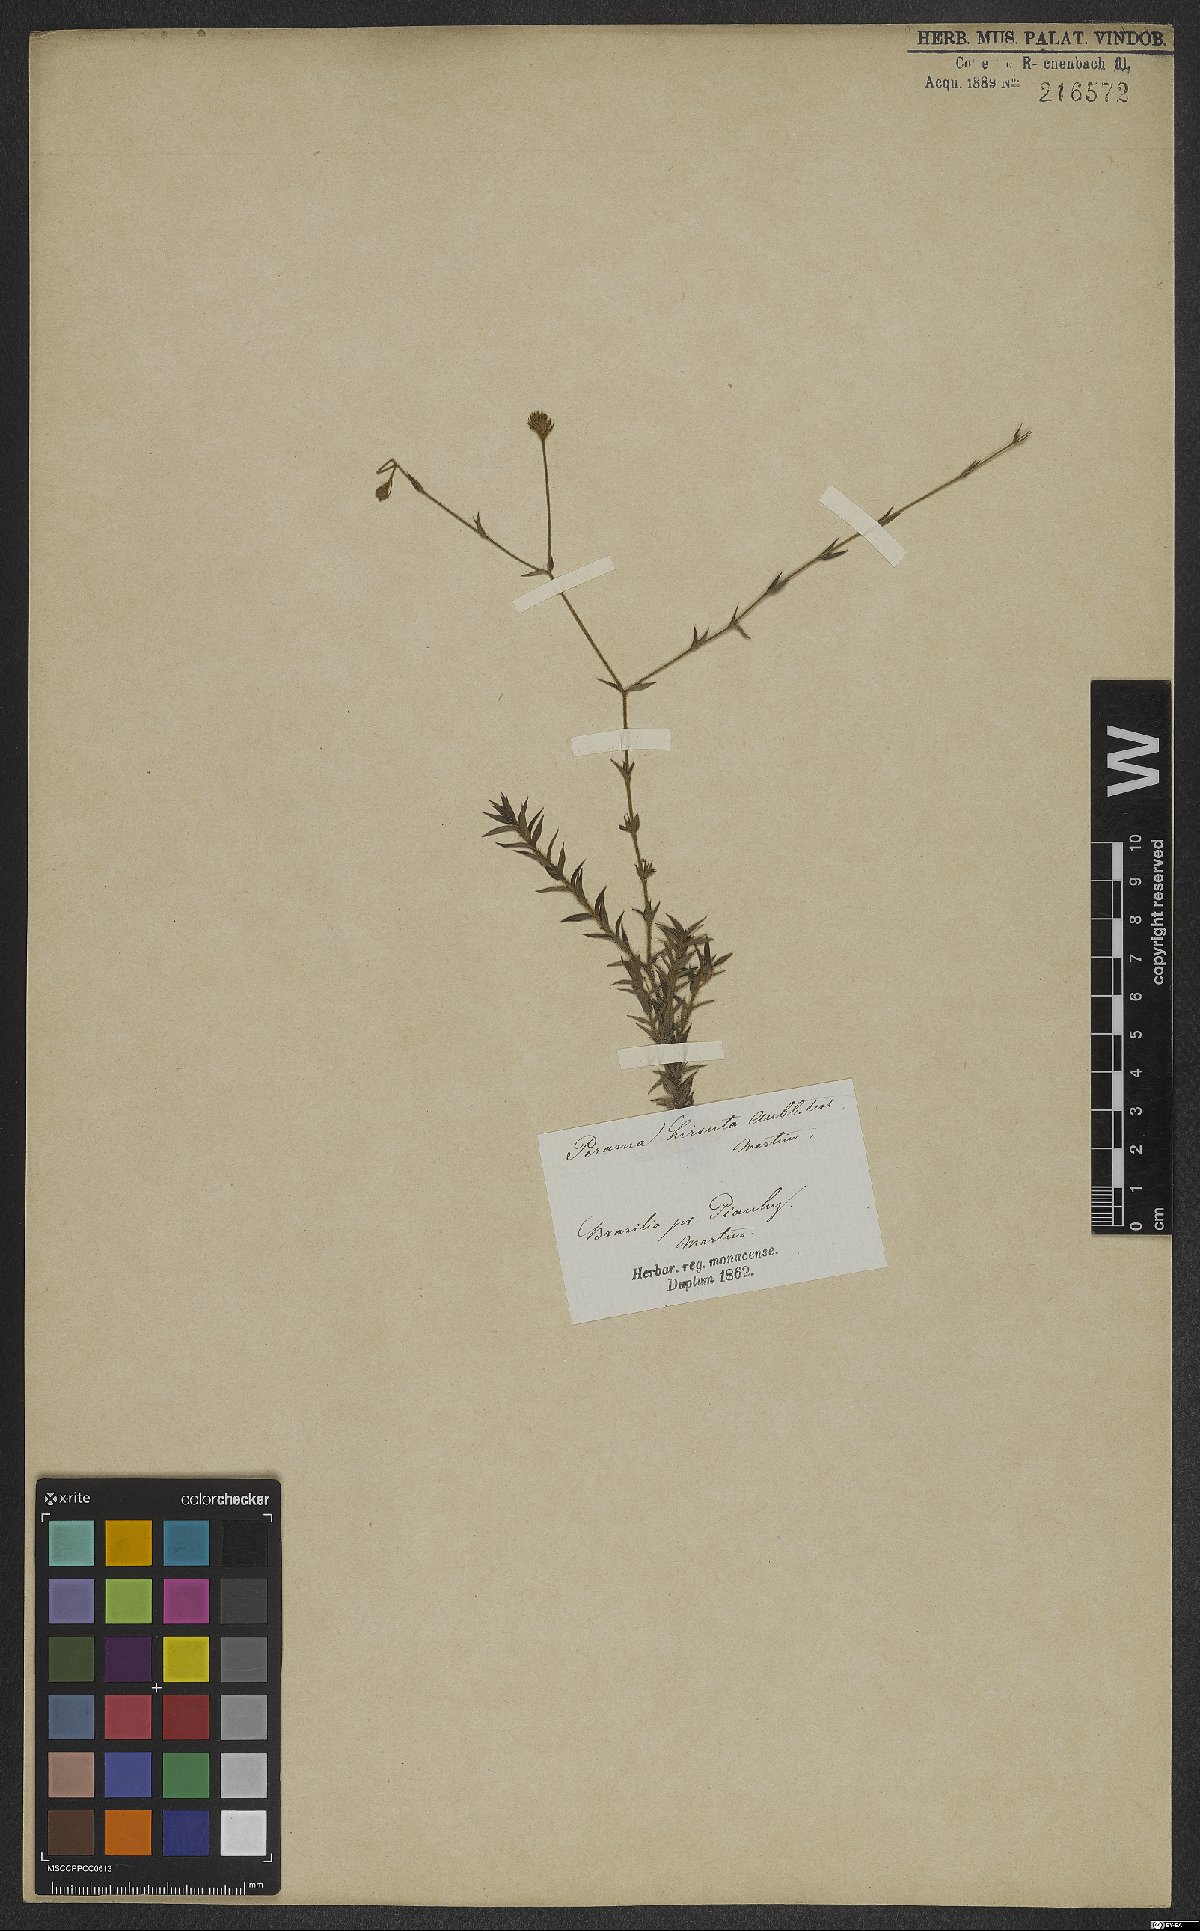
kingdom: Plantae
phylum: Tracheophyta
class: Magnoliopsida
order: Gentianales
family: Rubiaceae
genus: Perama
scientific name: Perama hirsuta
